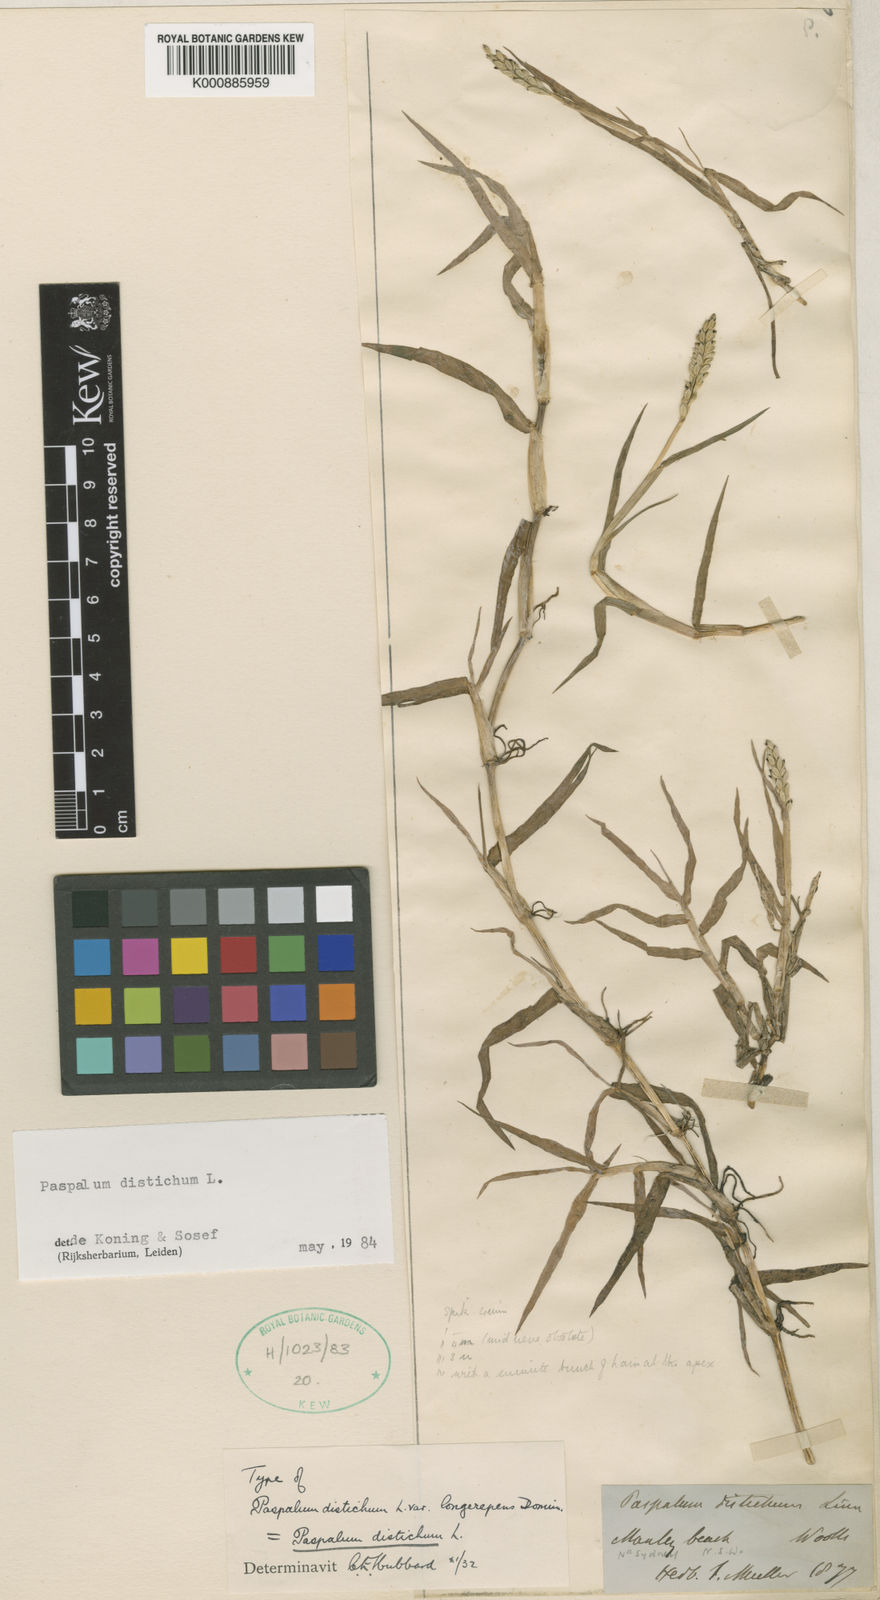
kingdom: Plantae
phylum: Tracheophyta
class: Liliopsida
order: Poales
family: Poaceae
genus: Paspalum
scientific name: Paspalum distichum
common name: Knotgrass
